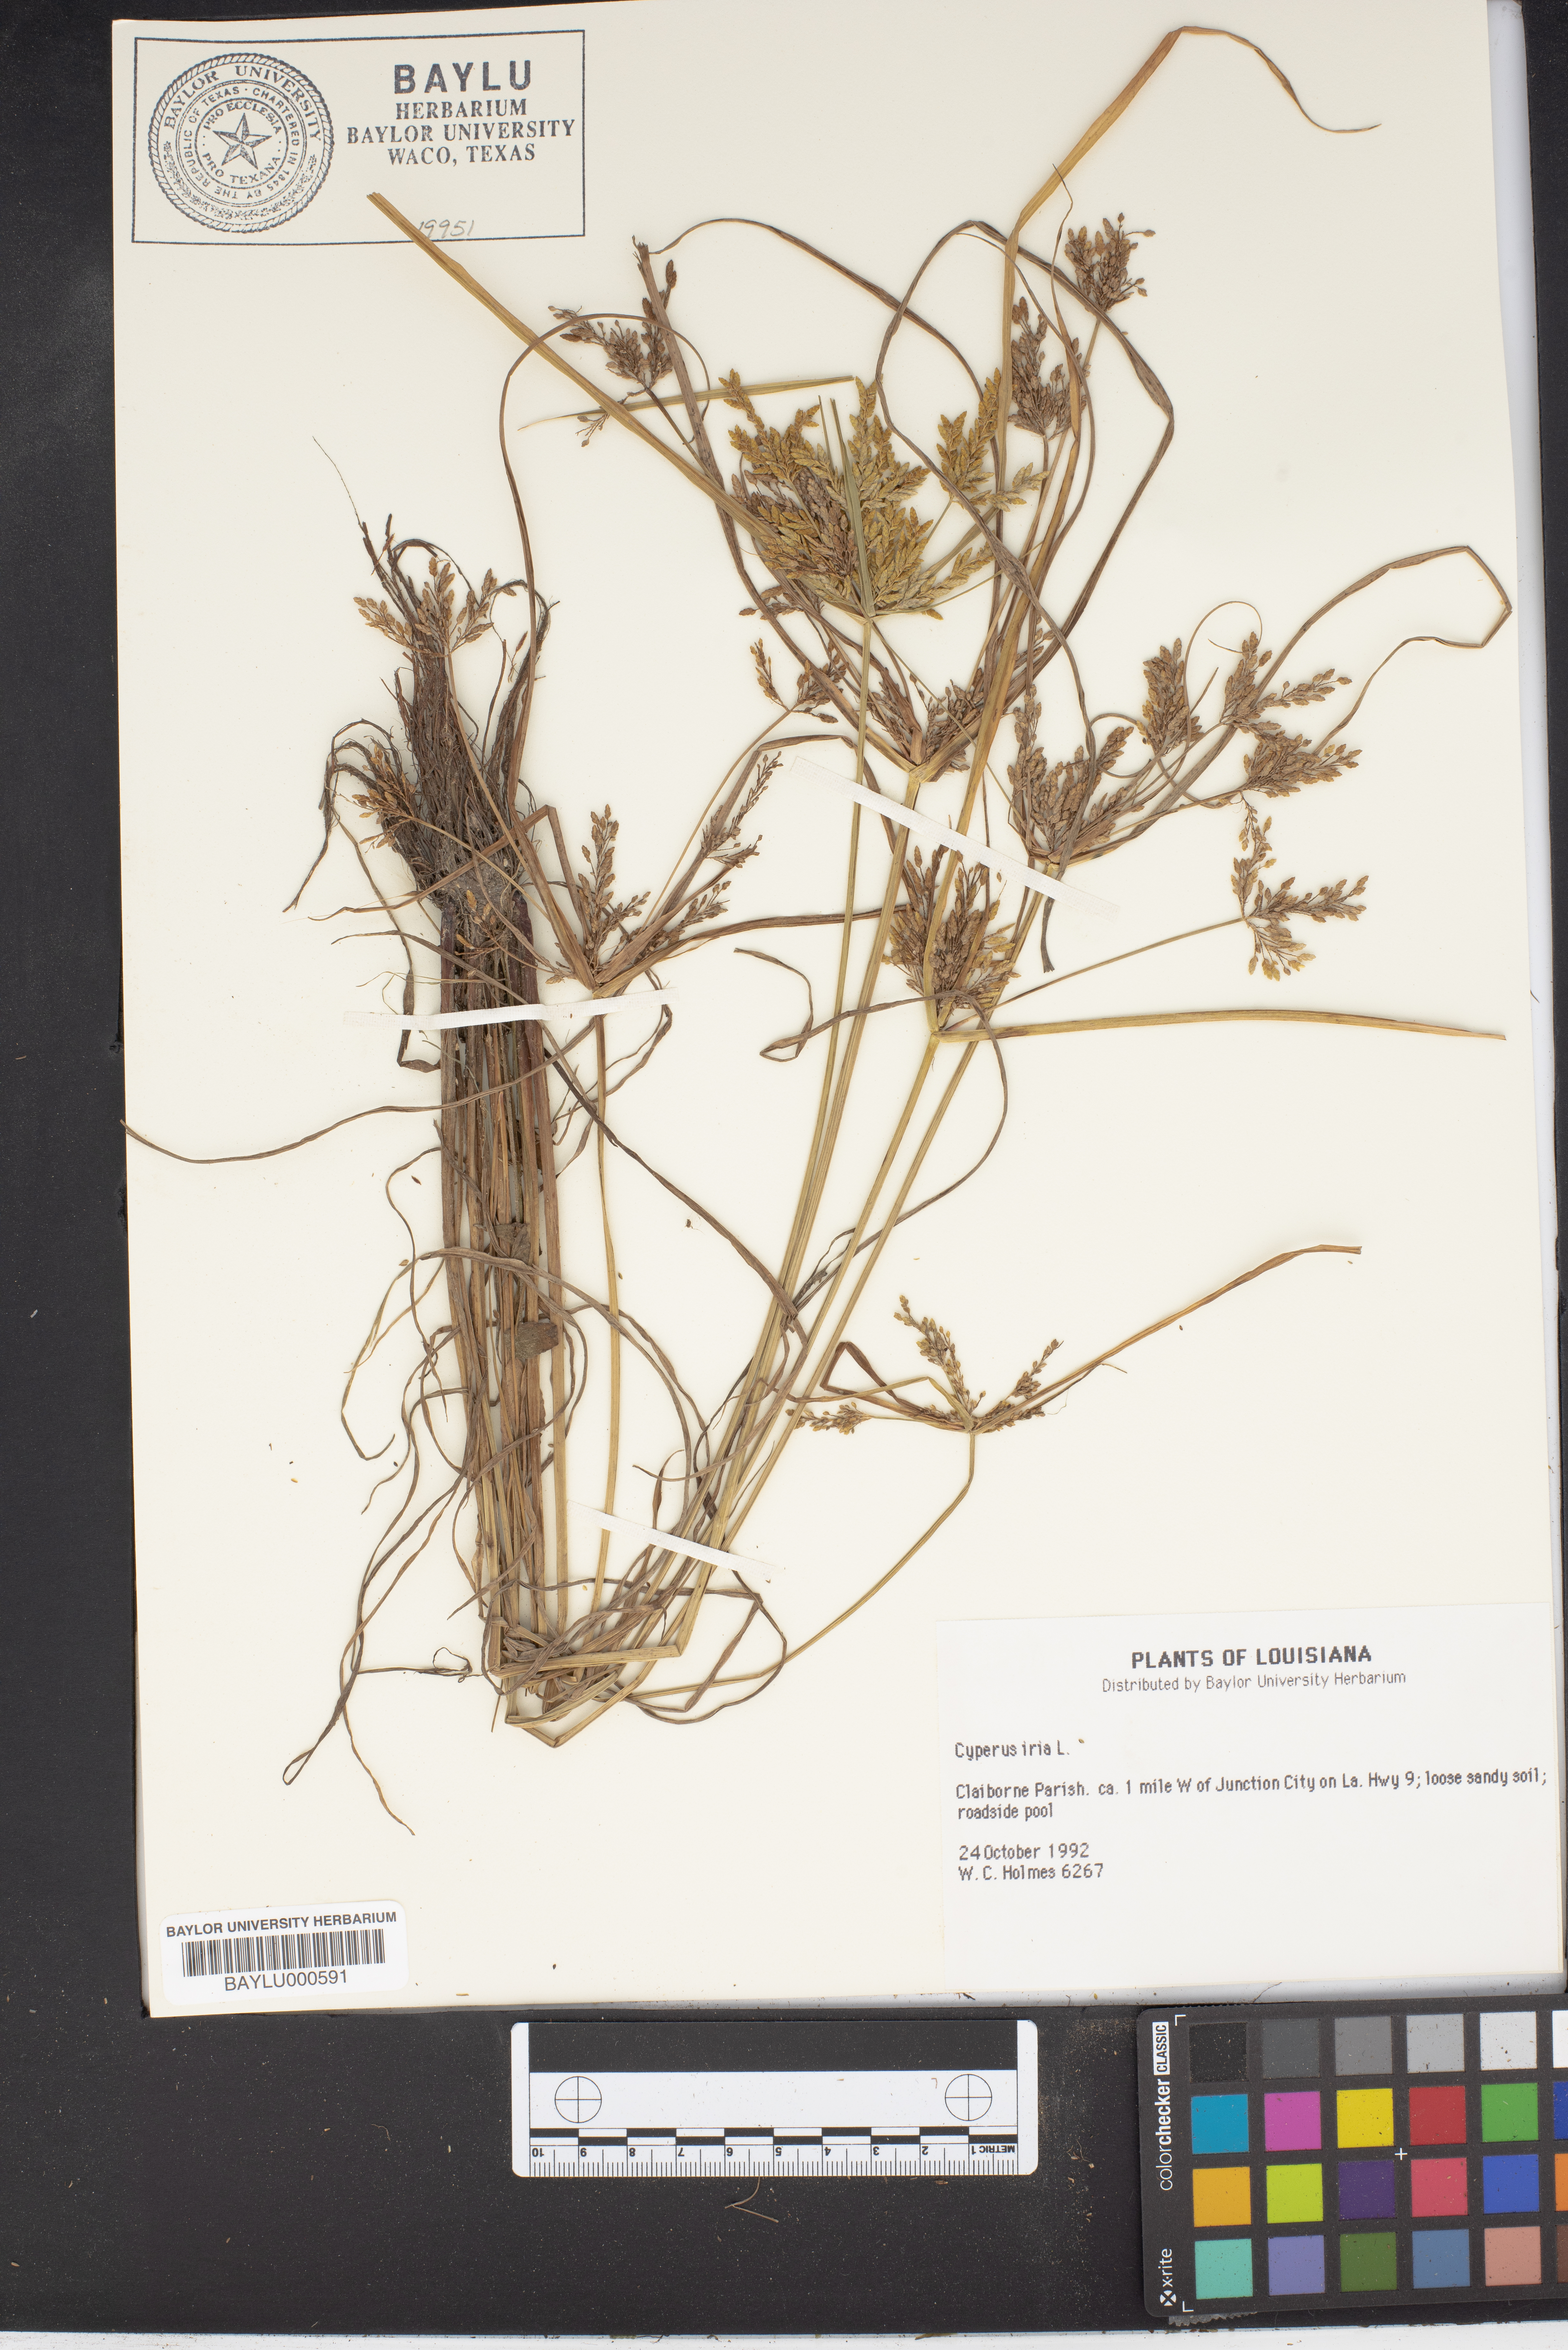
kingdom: Plantae
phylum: Tracheophyta
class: Liliopsida
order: Poales
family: Cyperaceae
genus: Cyperus
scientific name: Cyperus iria
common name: Ricefield flatsedge
